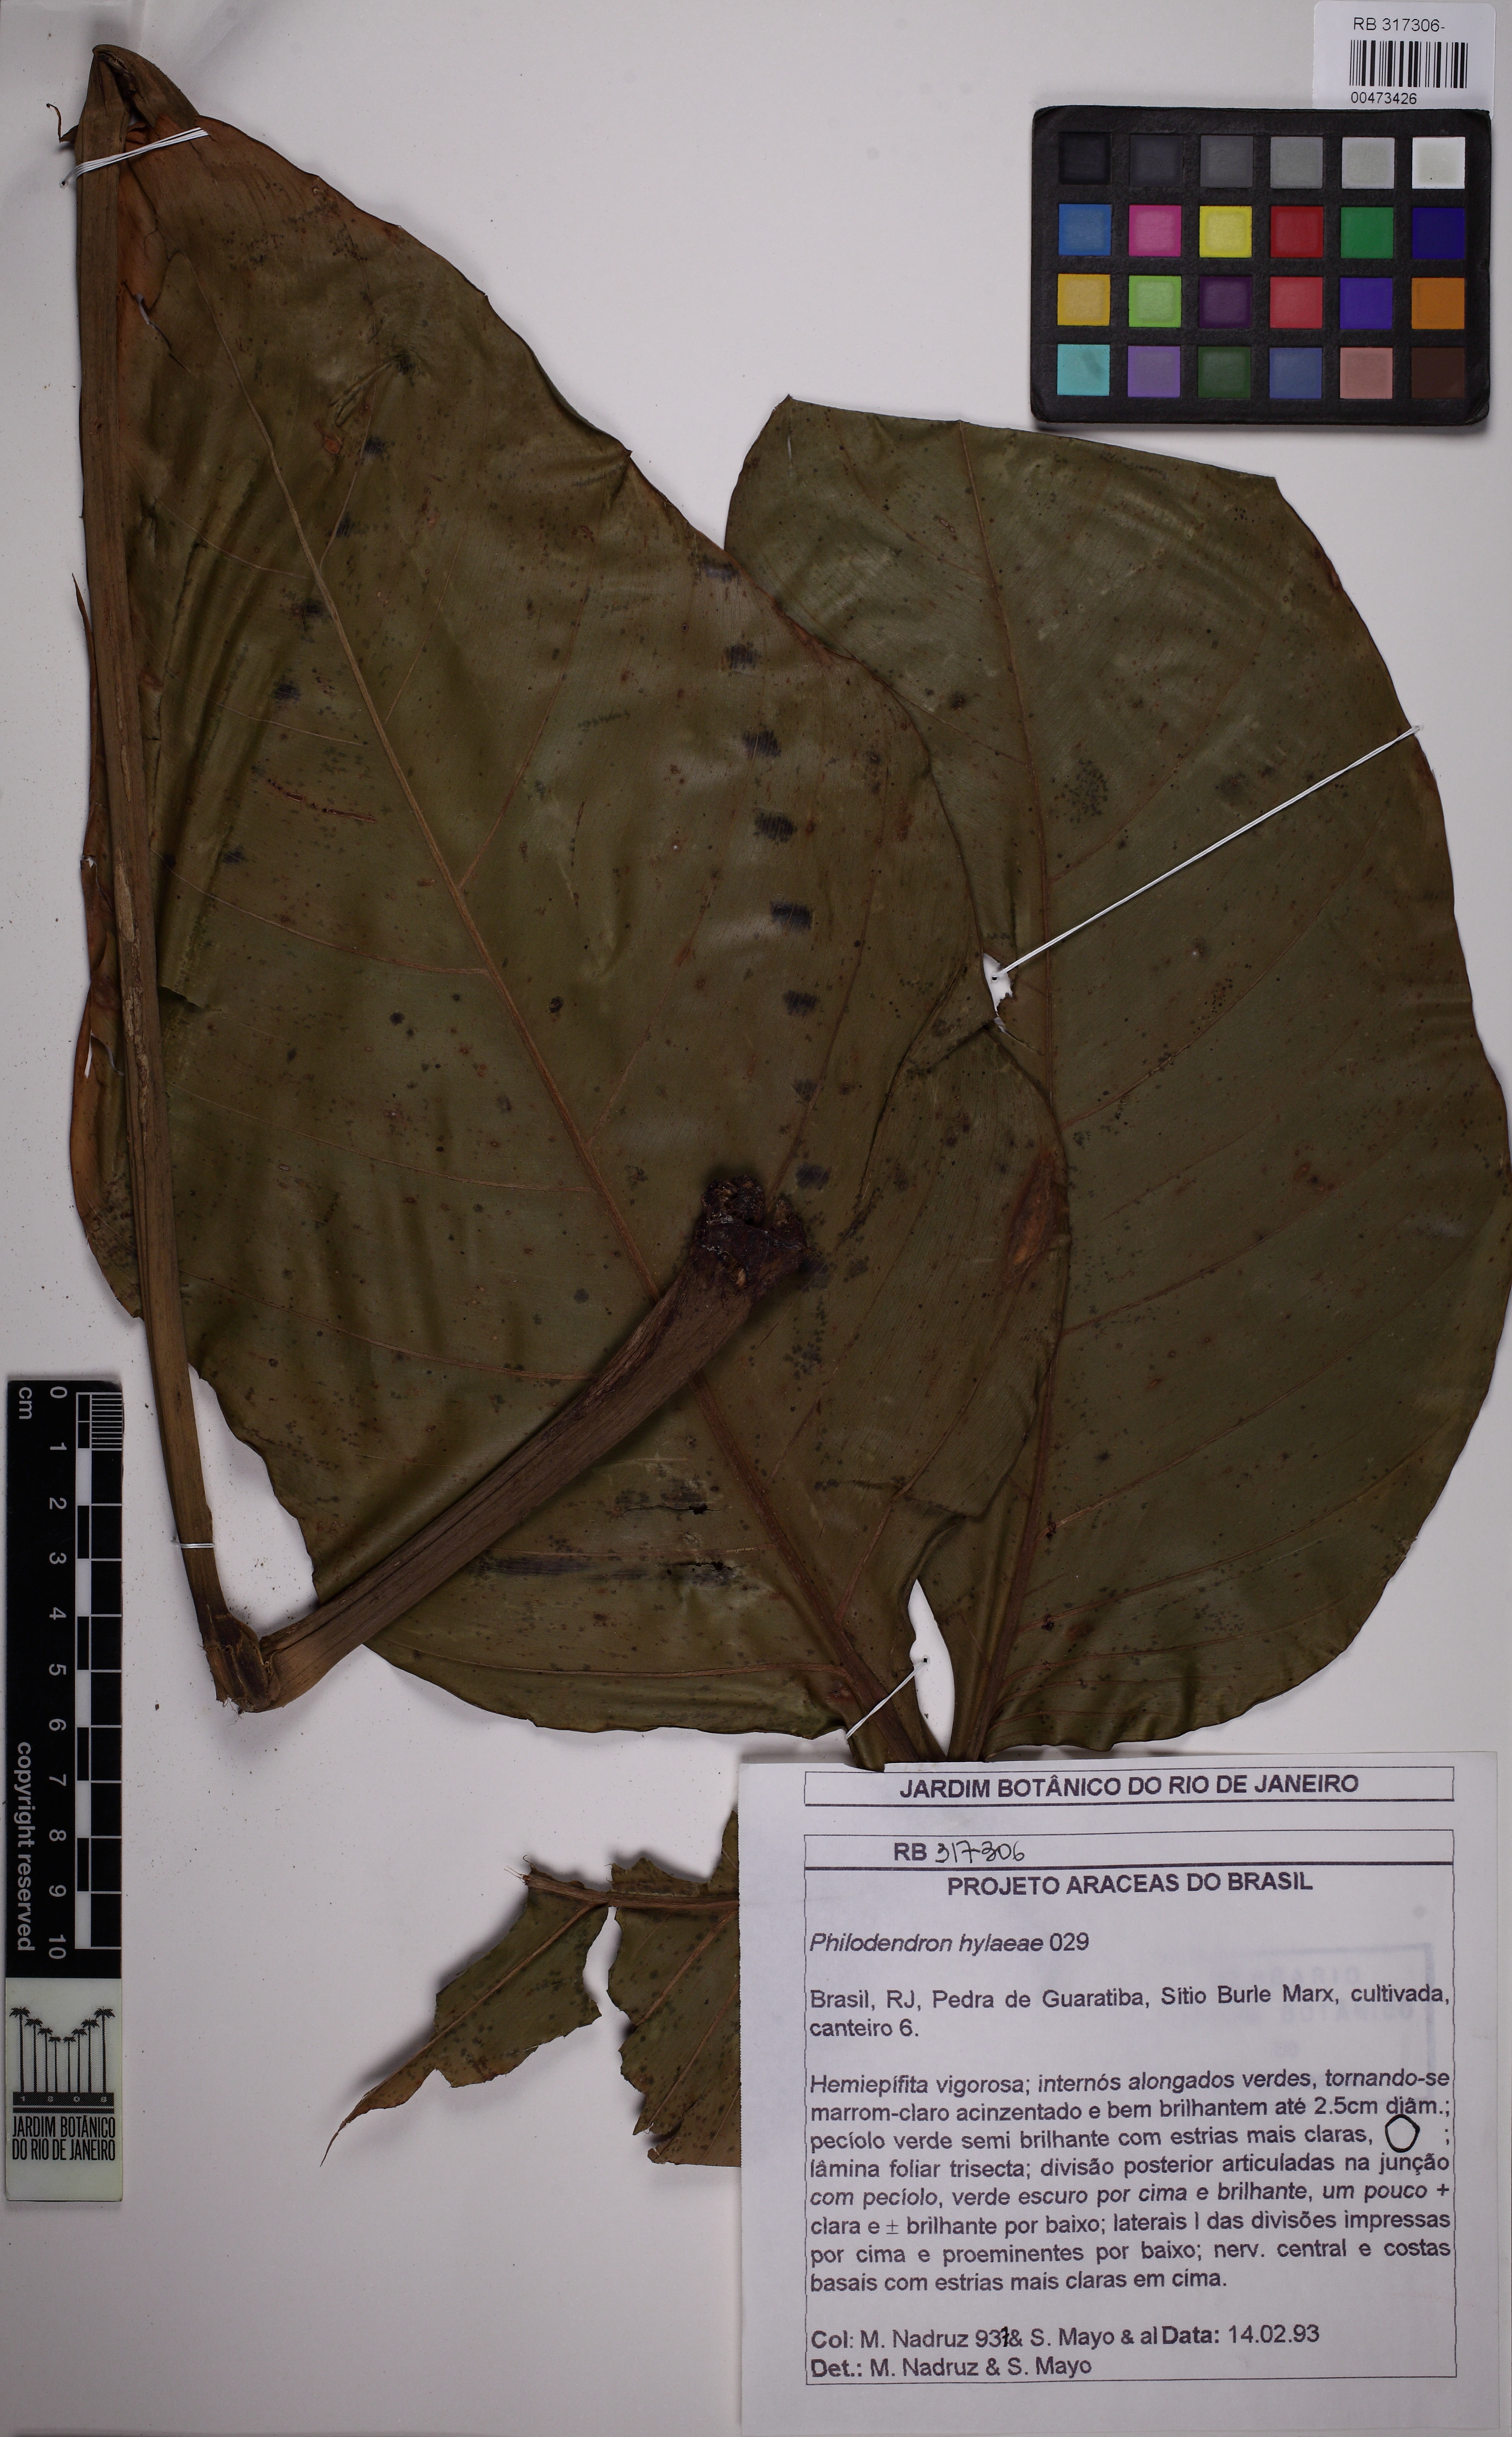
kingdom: Plantae
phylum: Tracheophyta
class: Liliopsida
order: Alismatales
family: Araceae
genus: Philodendron
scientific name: Philodendron hylaeae
